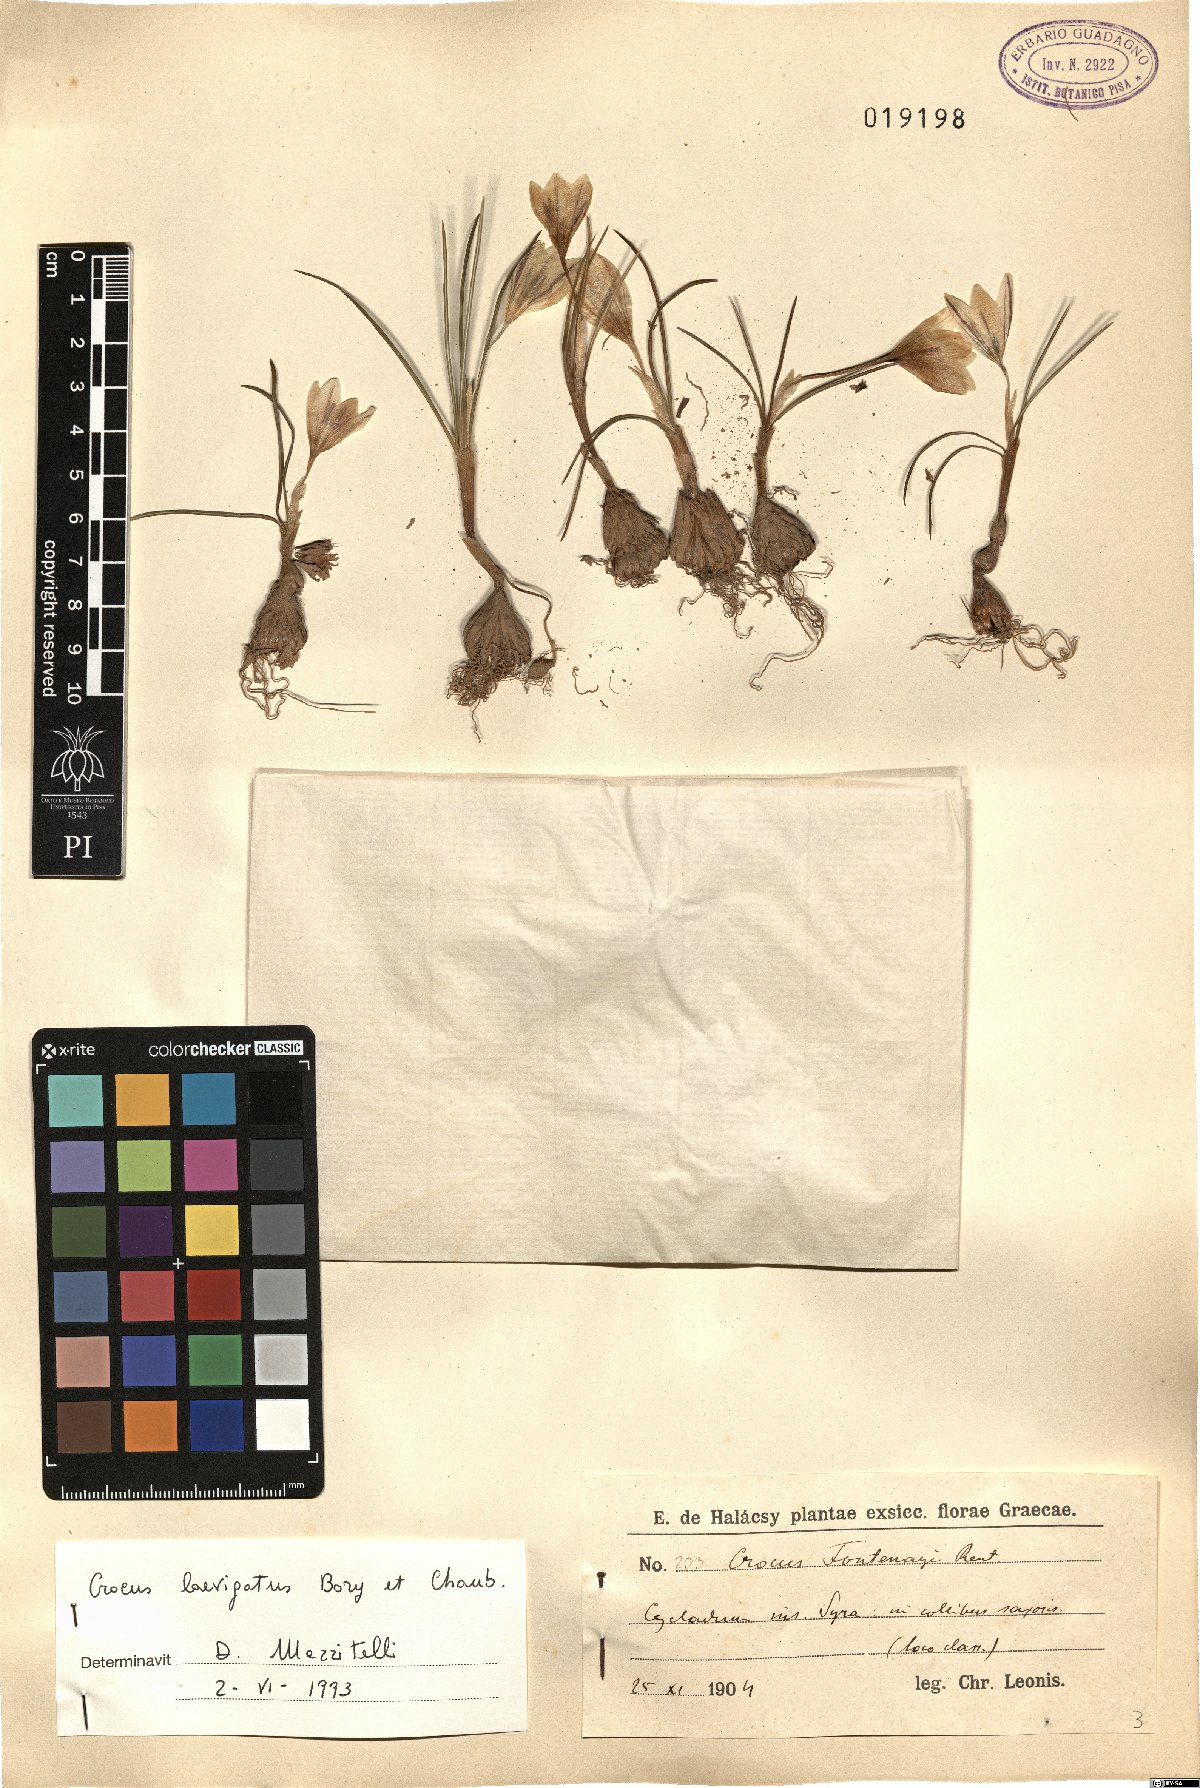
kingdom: Plantae
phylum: Tracheophyta
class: Liliopsida
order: Asparagales
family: Iridaceae
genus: Crocus
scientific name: Crocus laevigatus
